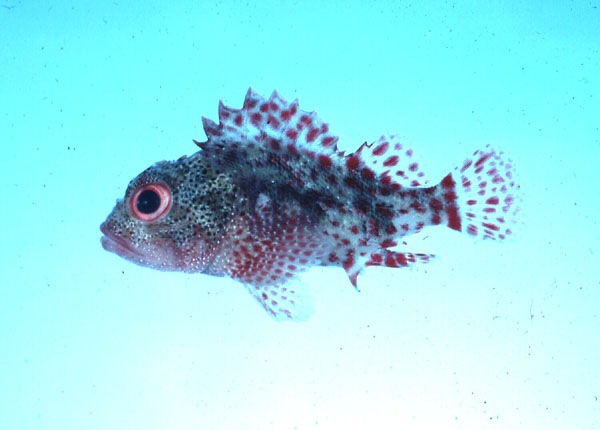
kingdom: Animalia
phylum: Chordata
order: Scorpaeniformes
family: Scorpaenidae
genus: Sebastapistes
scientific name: Sebastapistes cyanostigma
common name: Yellowspotted scorpionfish
